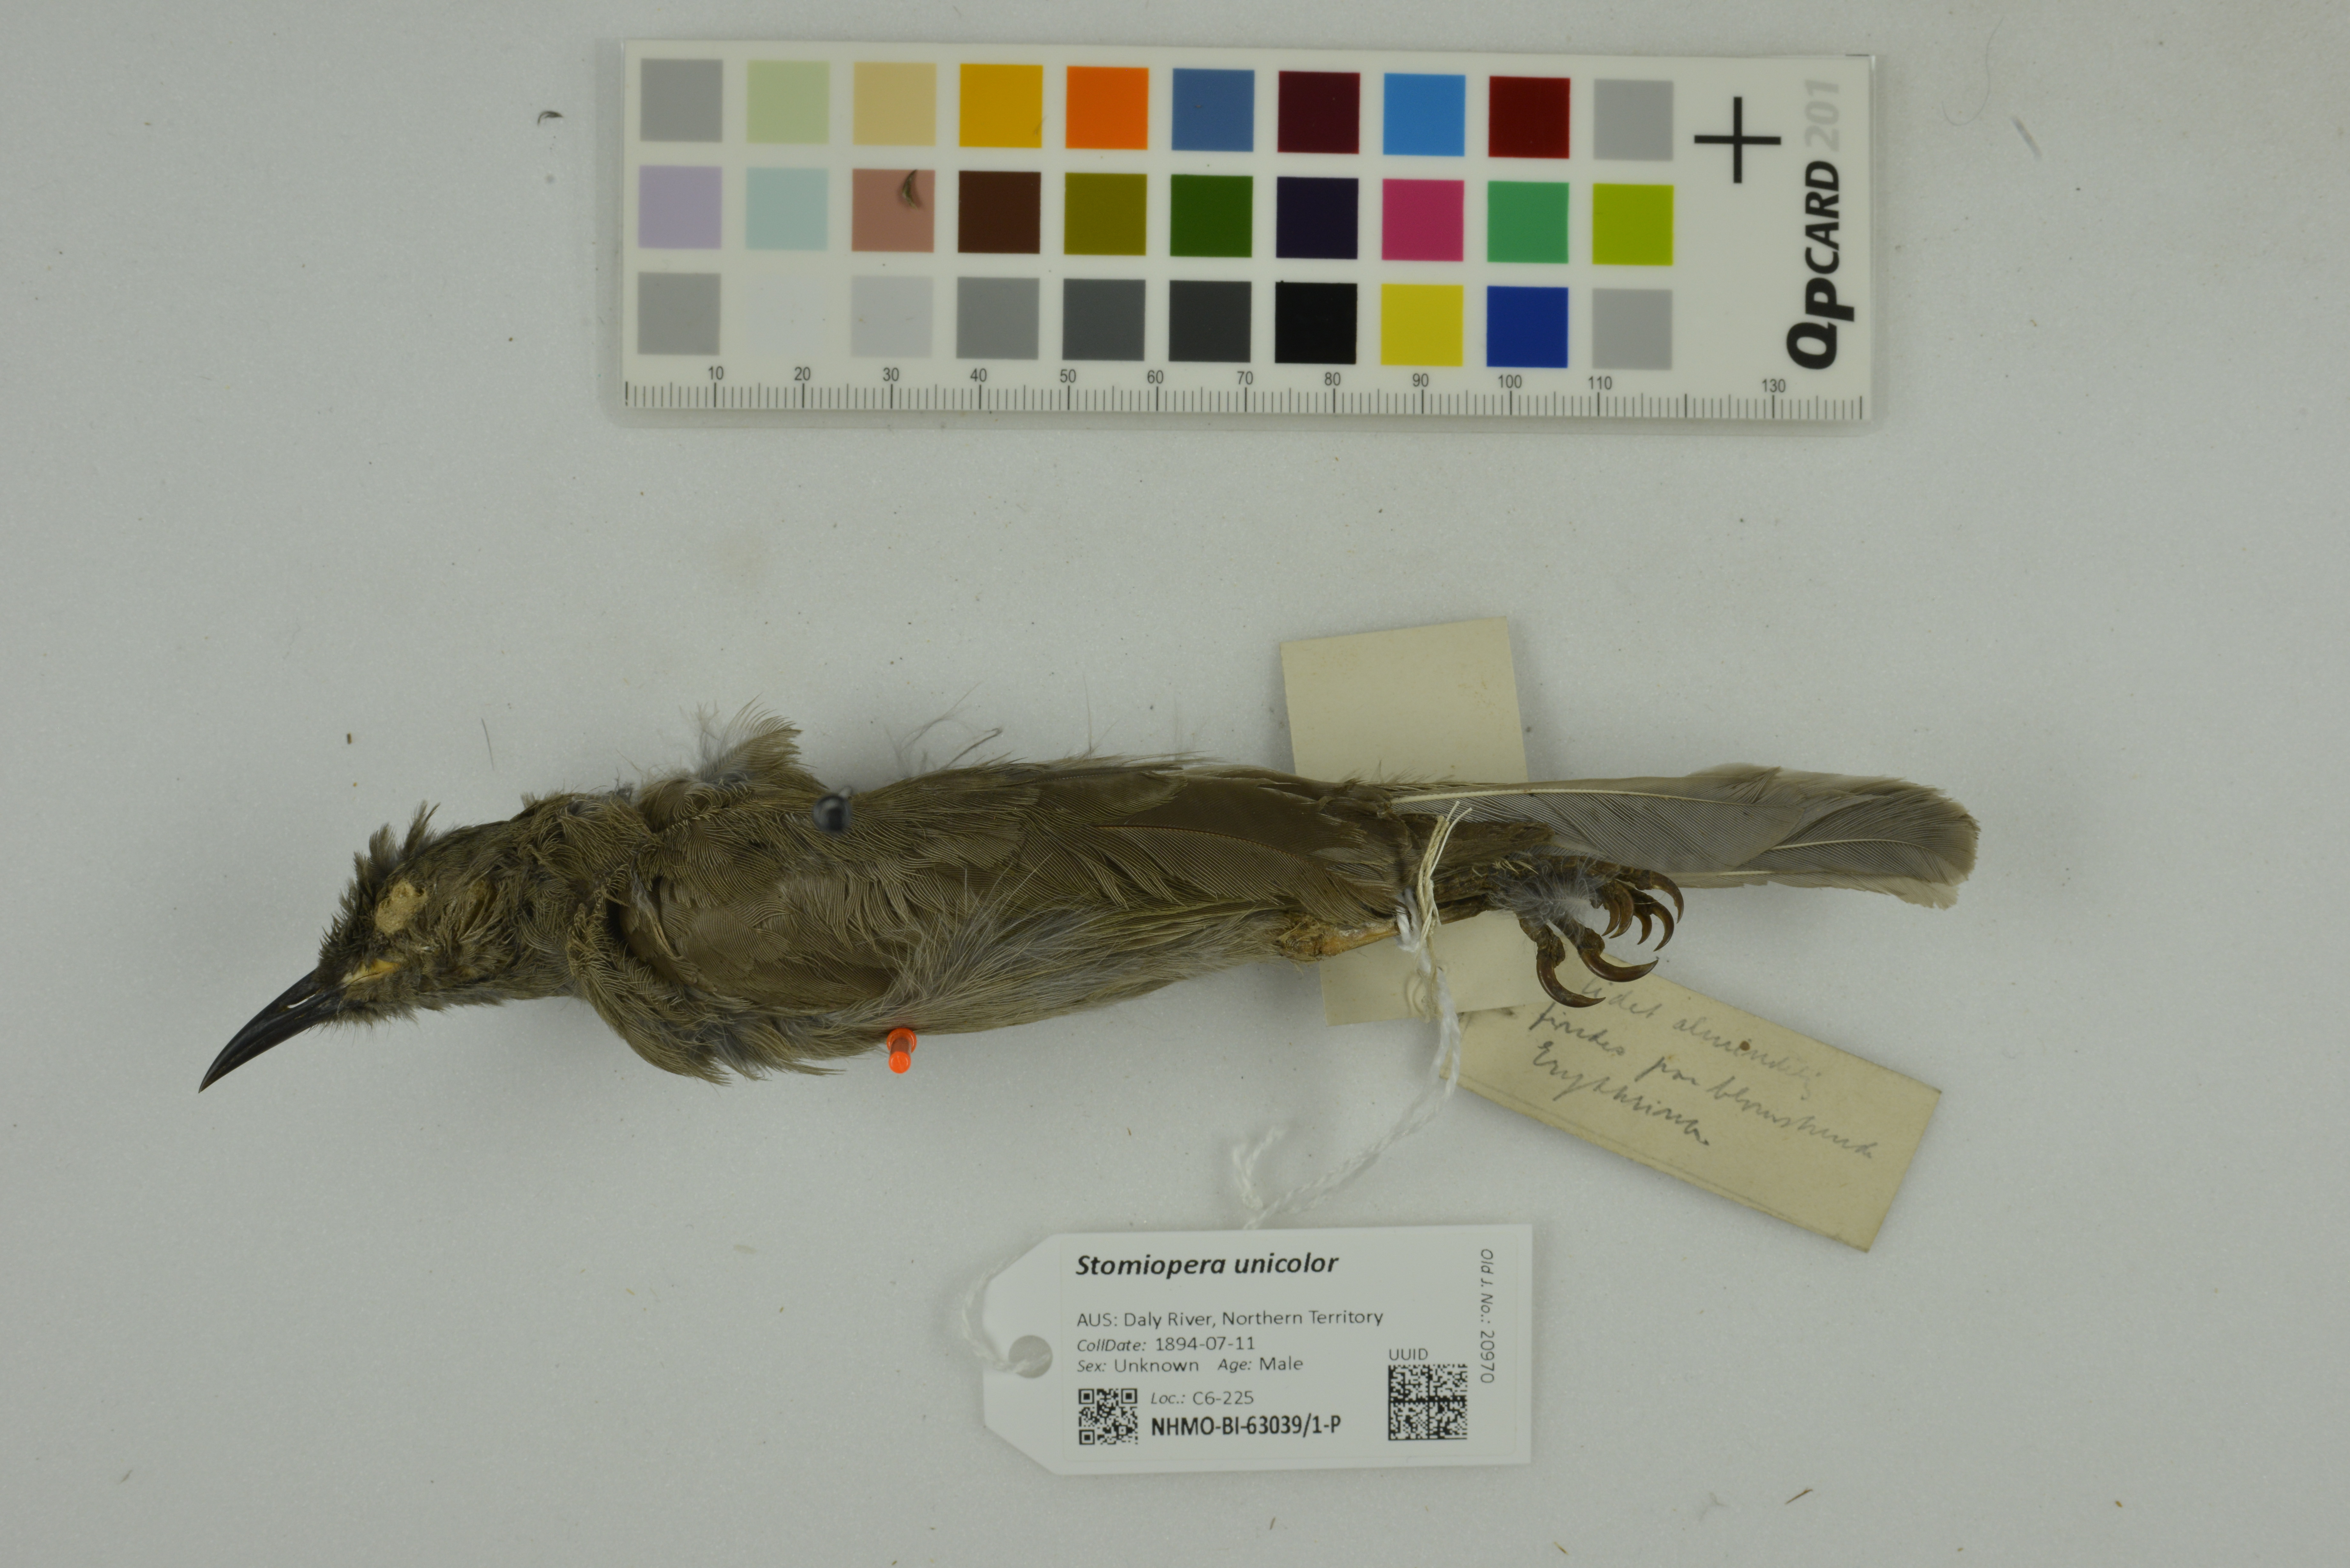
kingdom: Animalia
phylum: Chordata
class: Aves
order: Passeriformes
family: Meliphagidae
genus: Stomiopera
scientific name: Stomiopera unicolor
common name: White-gaped honeyeater
